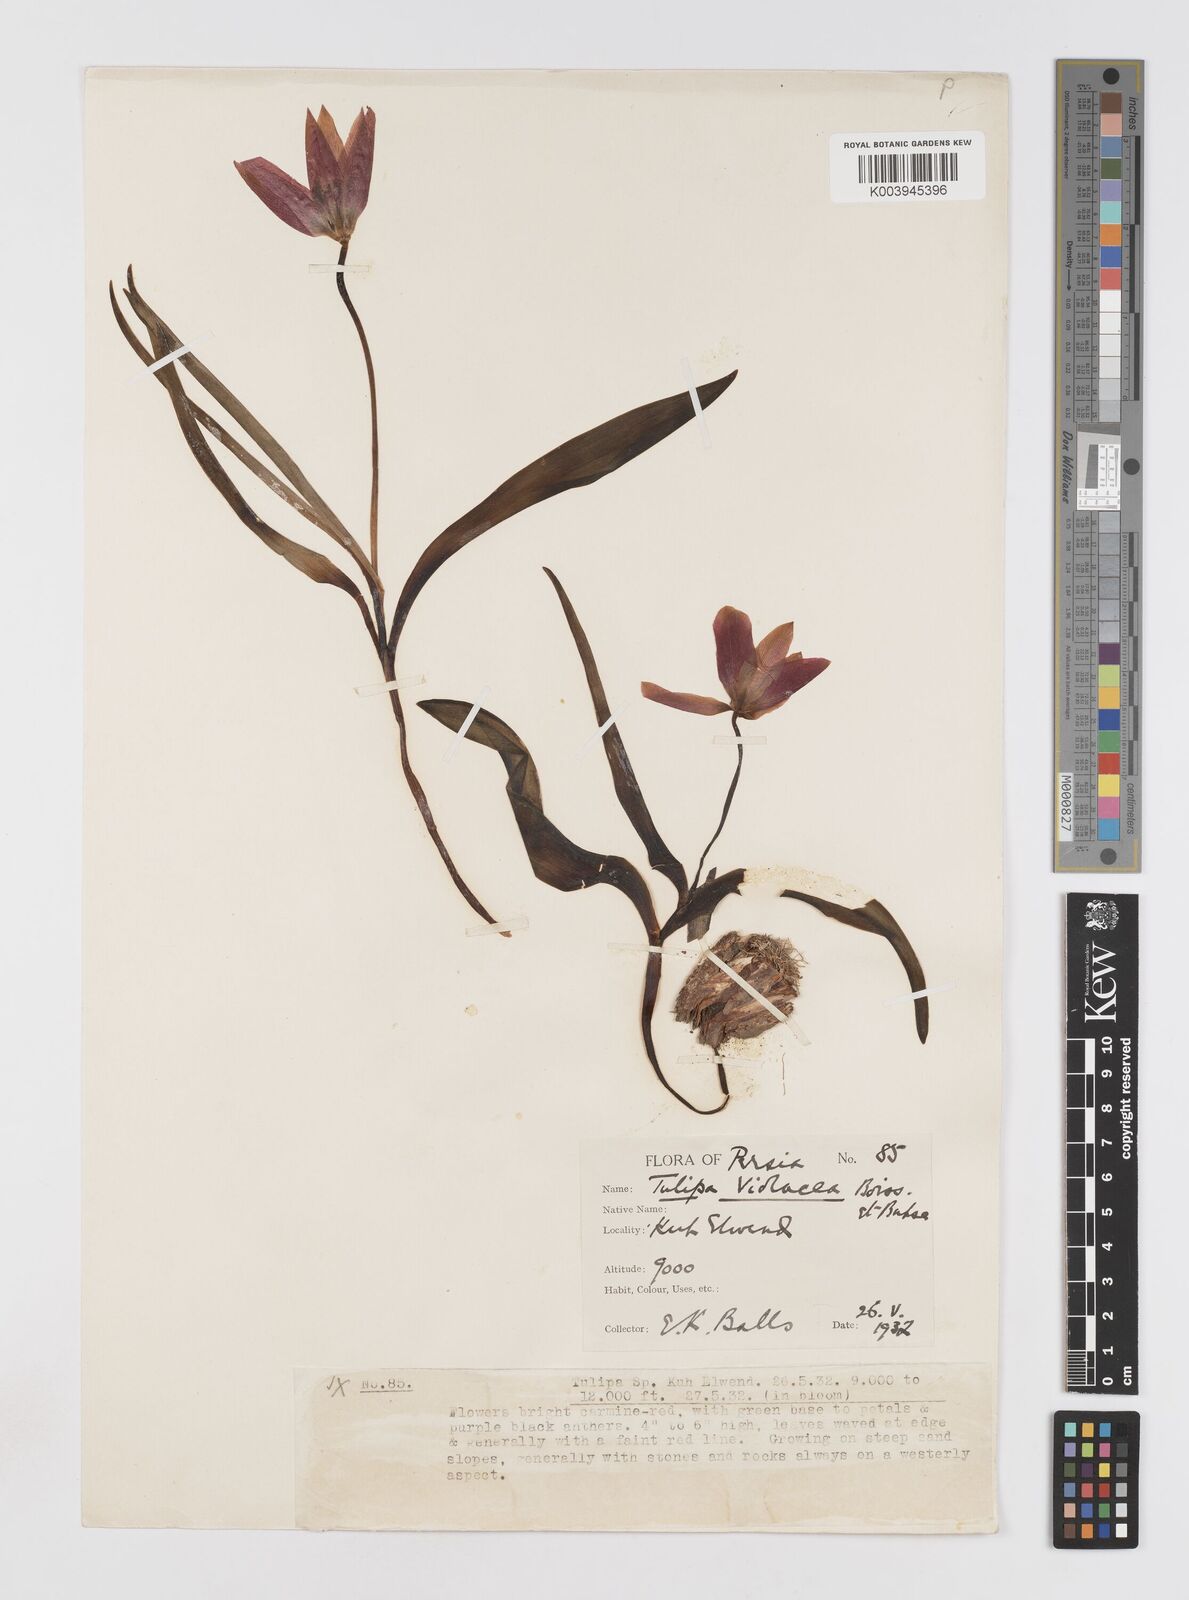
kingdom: Plantae
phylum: Tracheophyta
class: Liliopsida
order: Liliales
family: Liliaceae
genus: Tulipa
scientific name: Tulipa humilis
